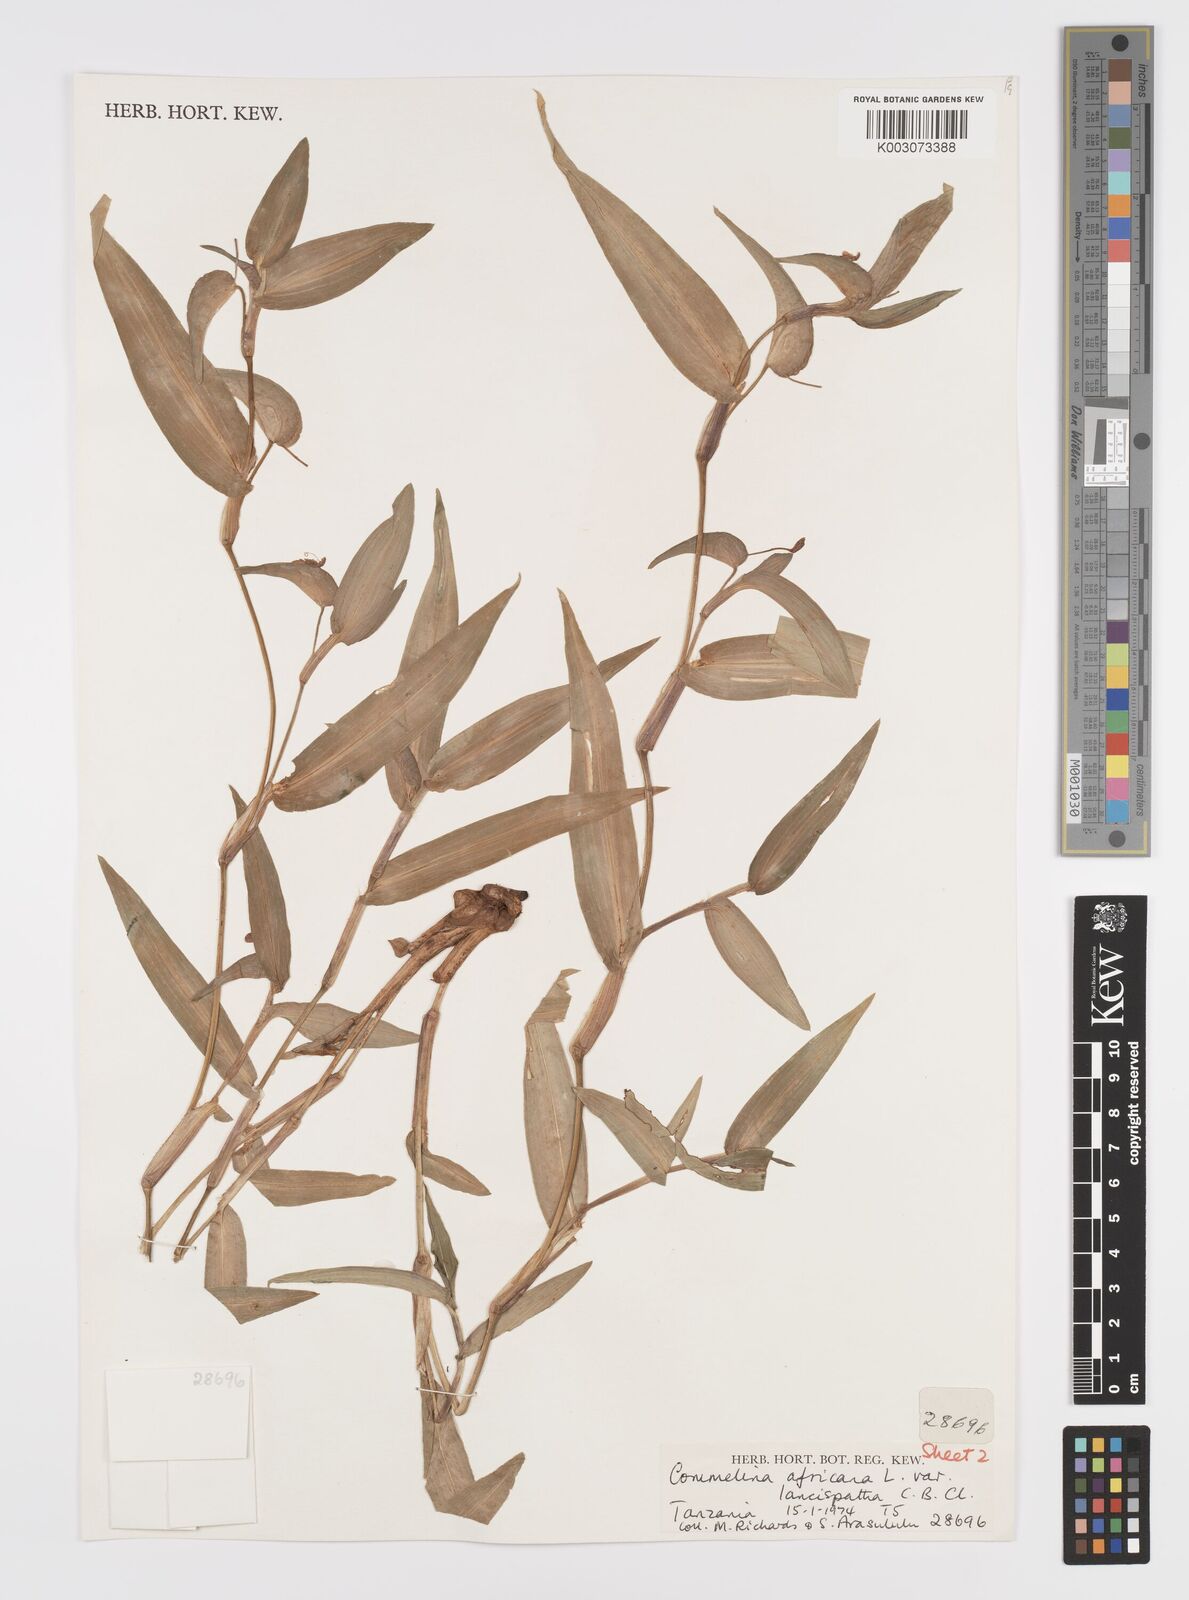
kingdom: Plantae
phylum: Tracheophyta
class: Liliopsida
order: Commelinales
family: Commelinaceae
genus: Commelina
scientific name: Commelina africana
